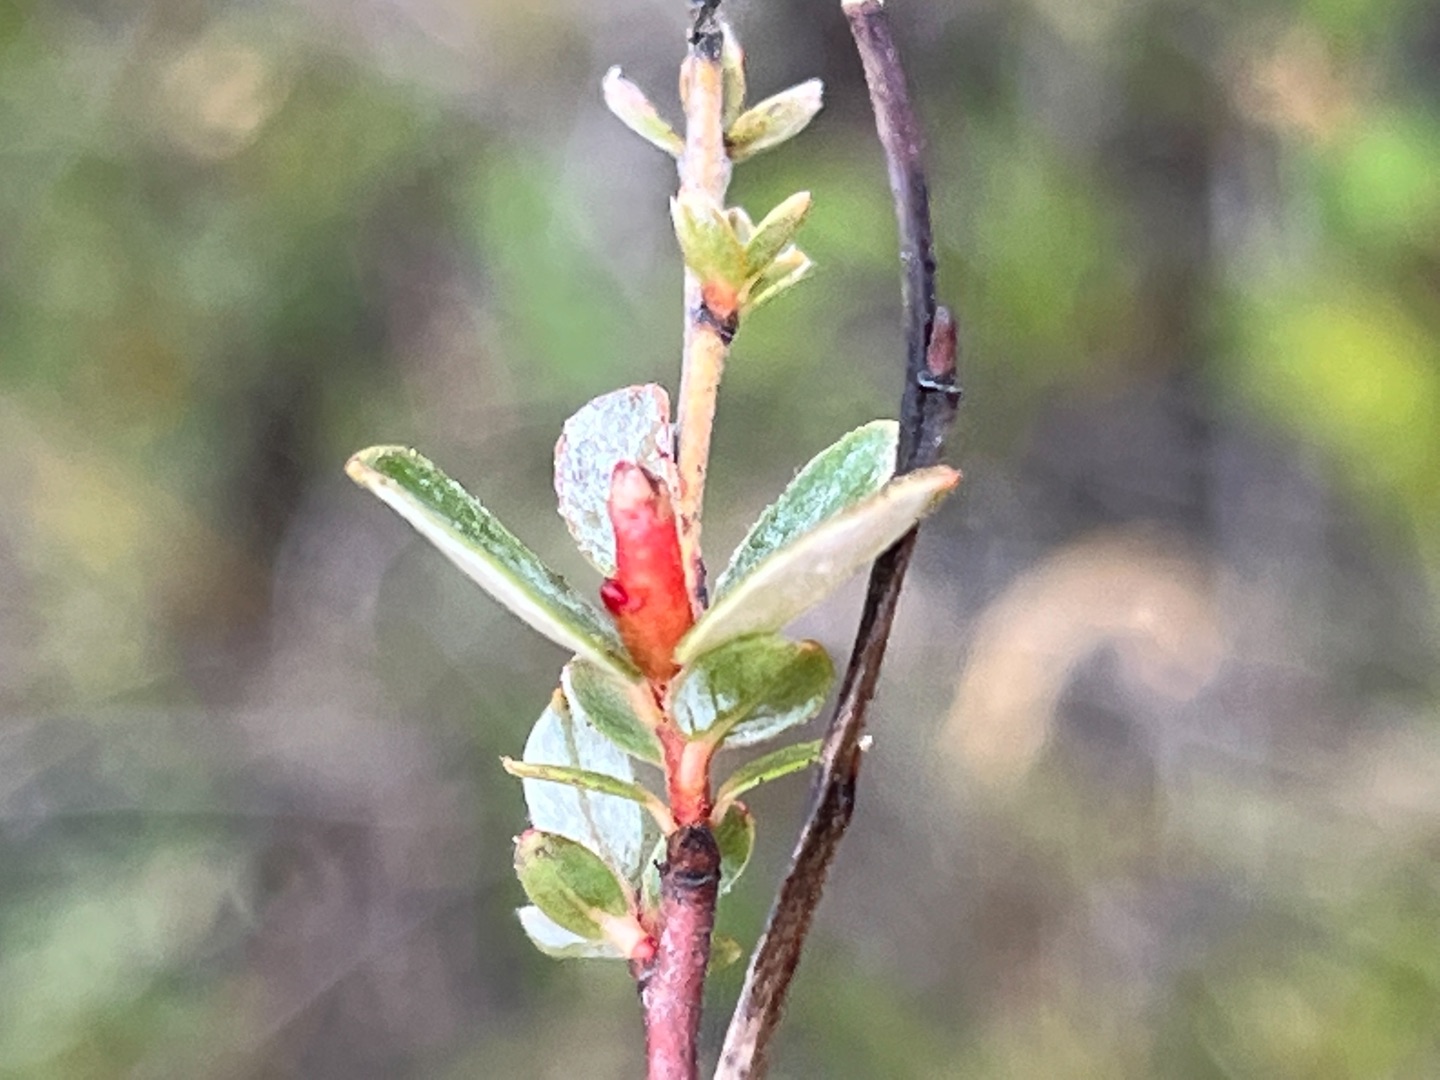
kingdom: Animalia
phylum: Arthropoda
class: Insecta
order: Diptera
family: Cecidomyiidae
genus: Rabdophaga
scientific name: Rabdophaga schicki
